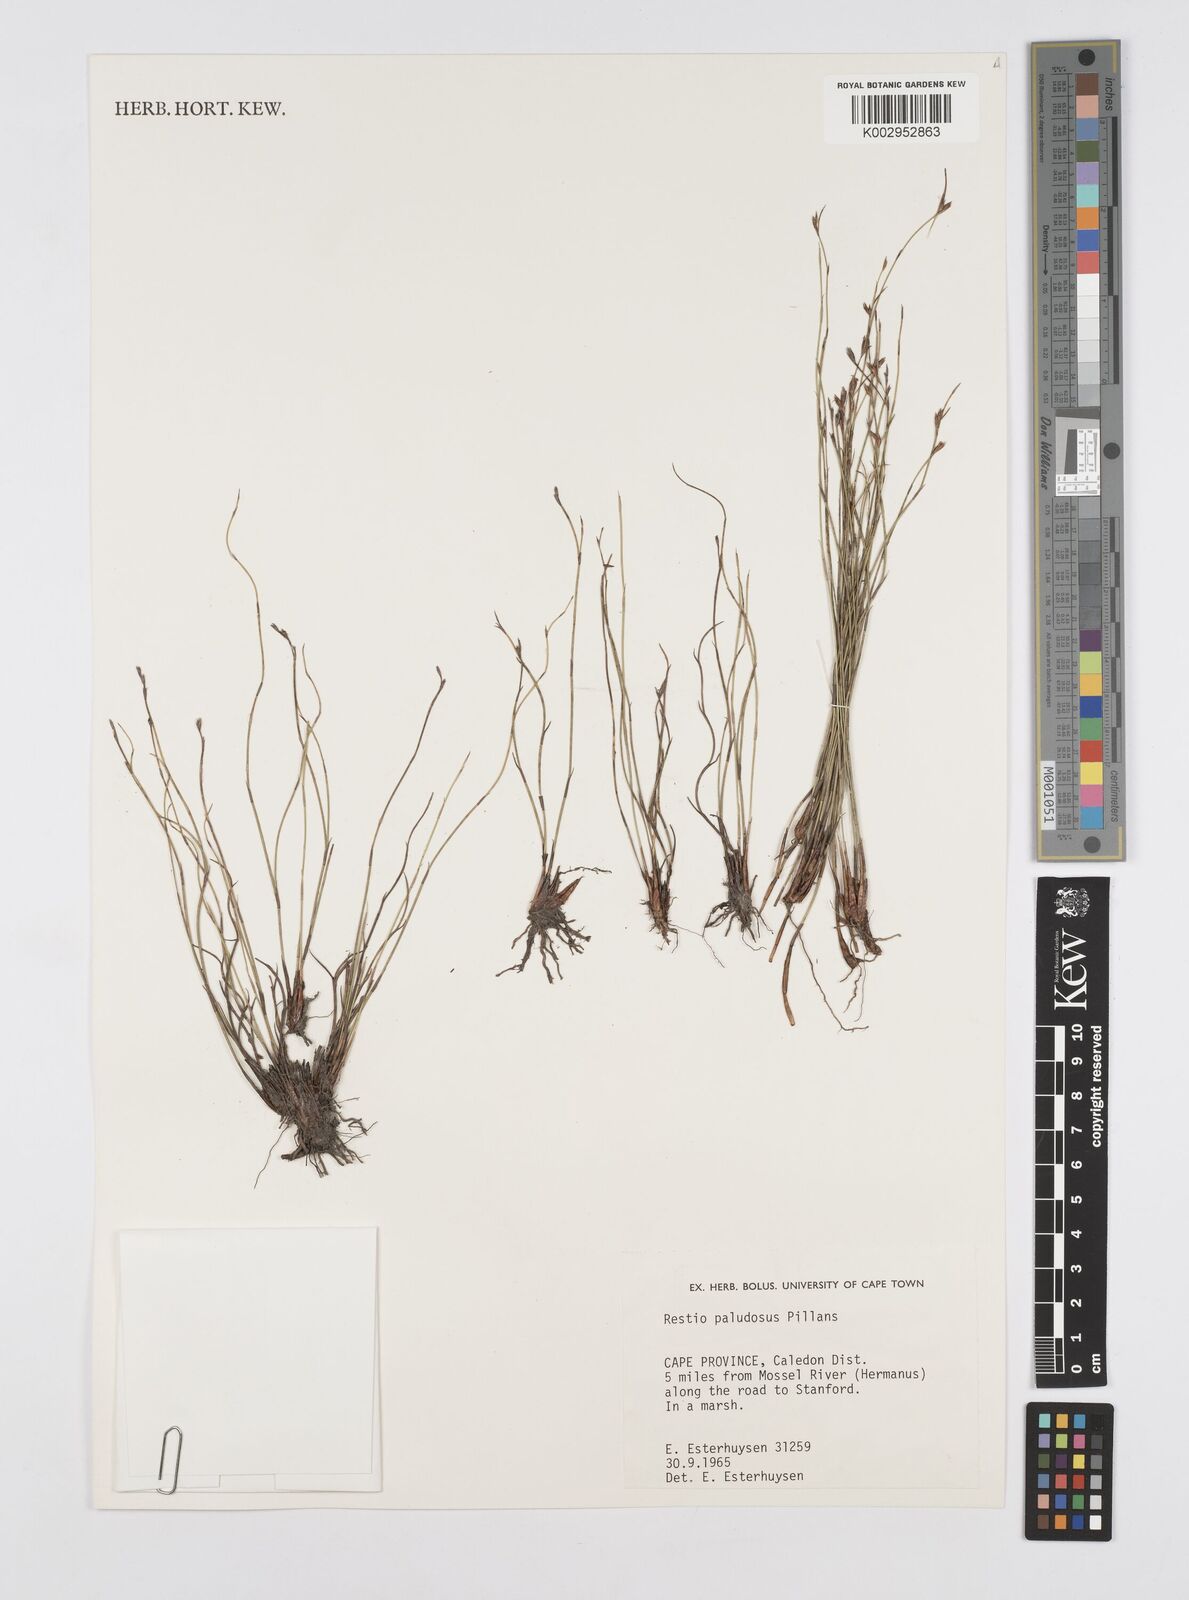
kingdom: Plantae
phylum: Tracheophyta
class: Liliopsida
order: Poales
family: Restionaceae
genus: Restio
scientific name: Restio paludosus
